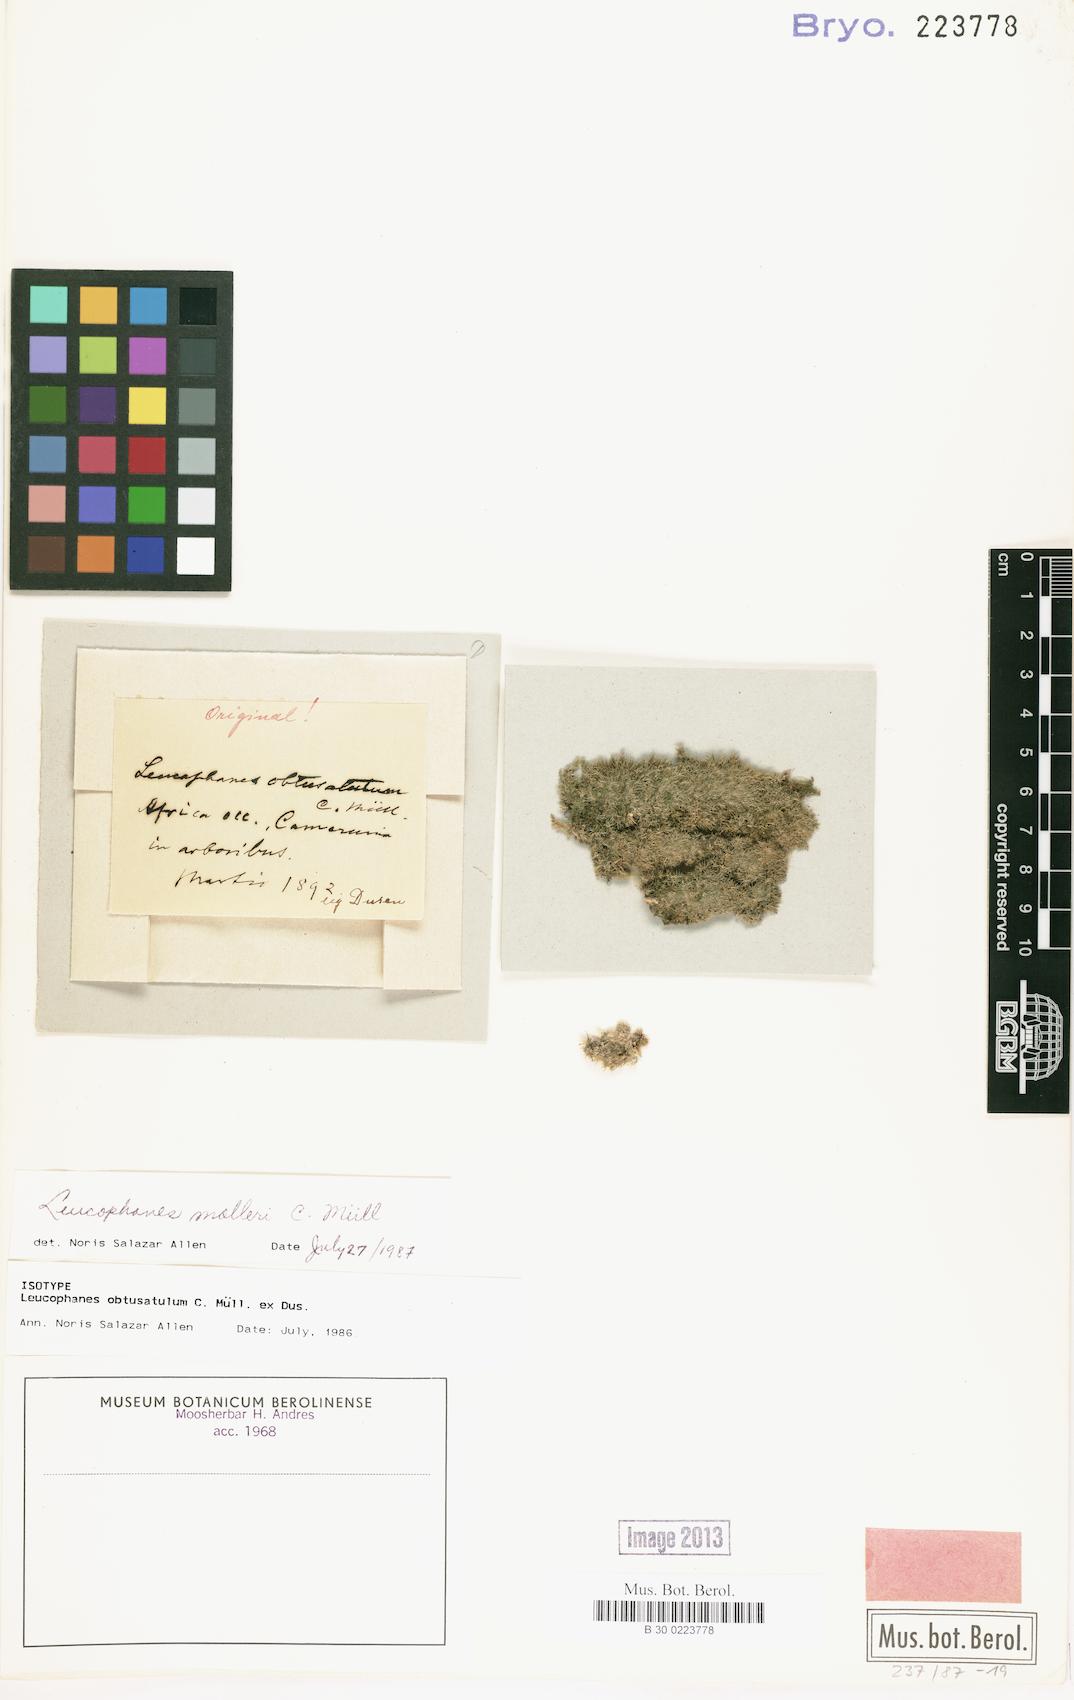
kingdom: Plantae
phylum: Bryophyta
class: Bryopsida
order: Dicranales
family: Calymperaceae
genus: Leucophanes
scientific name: Leucophanes molleri
